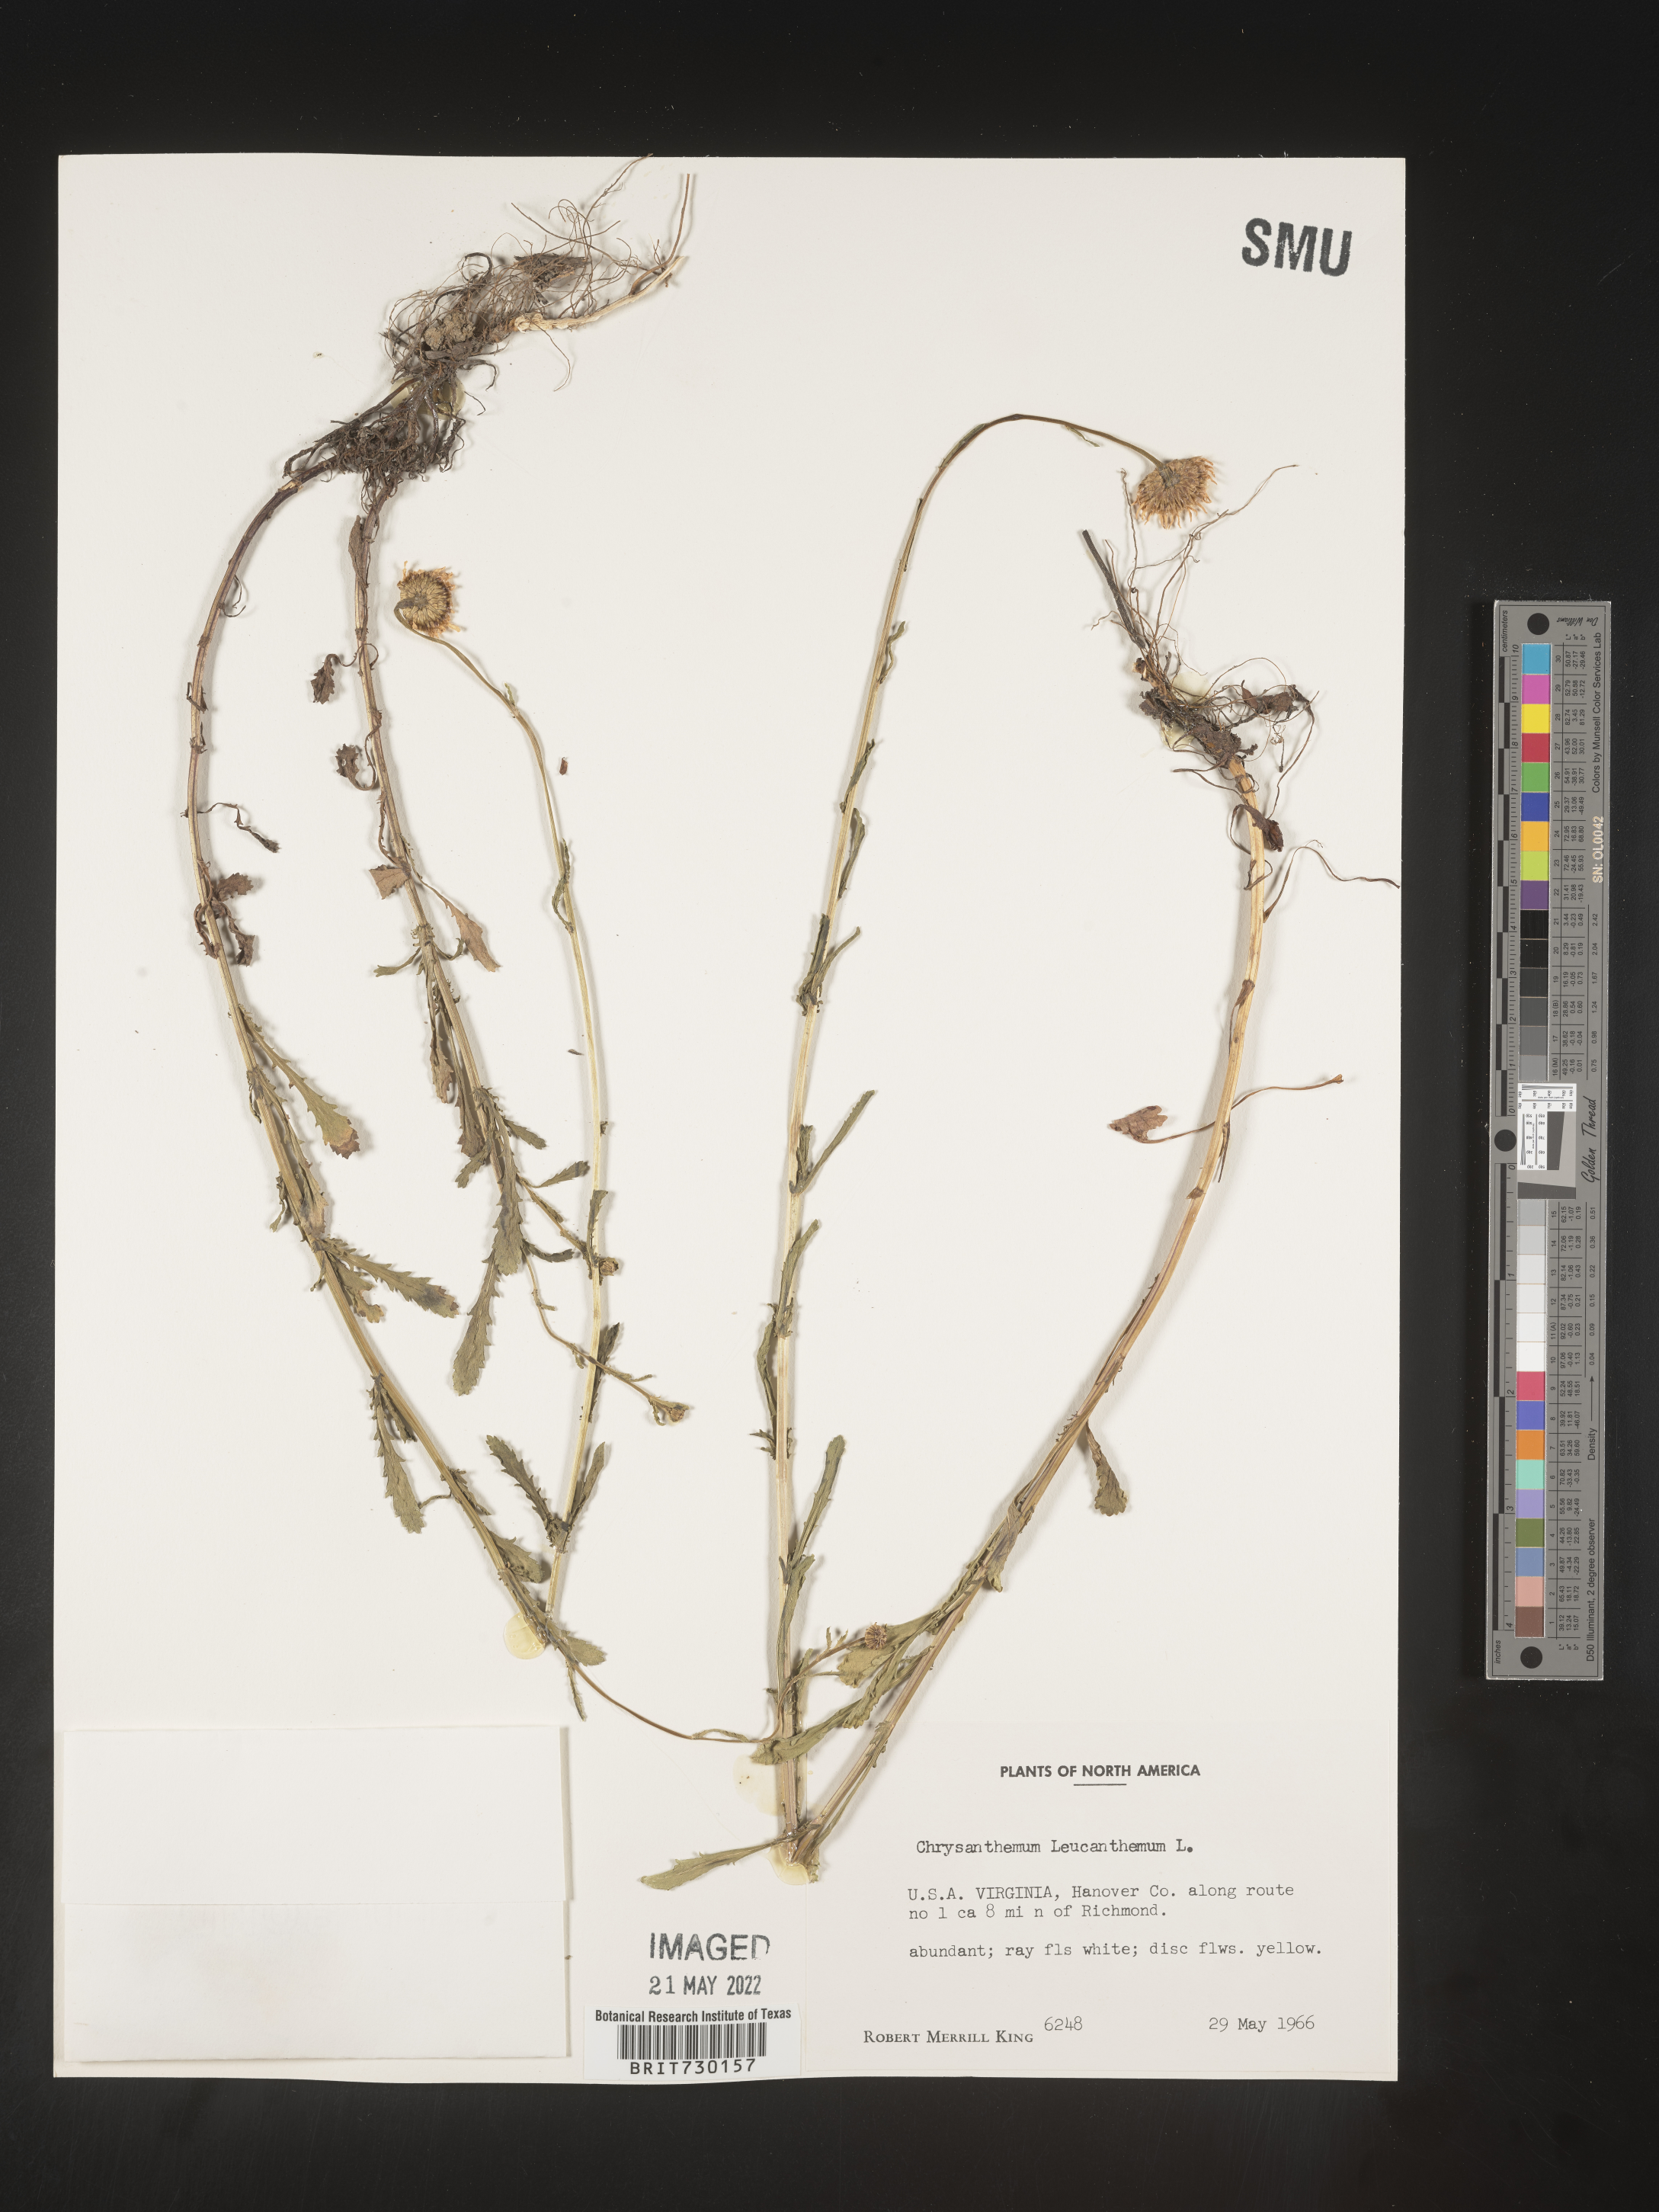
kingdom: Plantae
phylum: Tracheophyta
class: Magnoliopsida
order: Asterales
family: Asteraceae
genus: Leucanthemum
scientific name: Leucanthemum vulgare
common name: Oxeye daisy
